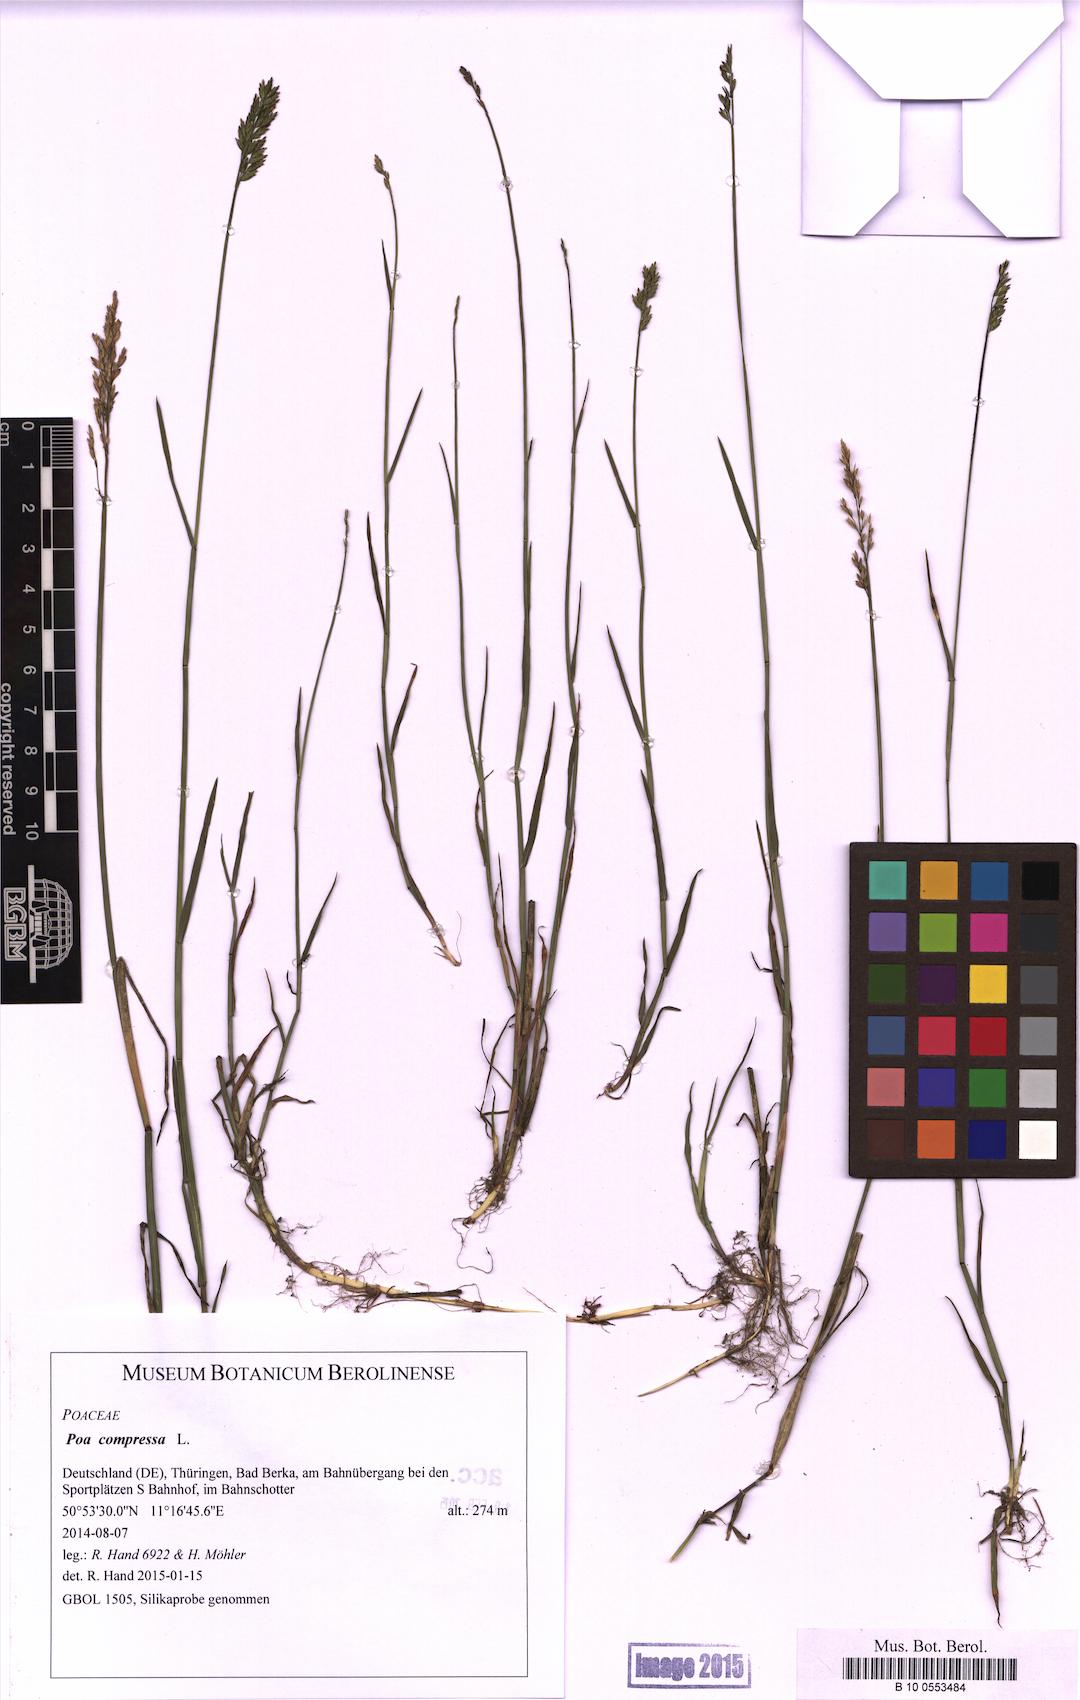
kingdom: Plantae
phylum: Tracheophyta
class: Liliopsida
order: Poales
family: Poaceae
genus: Poa
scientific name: Poa compressa
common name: Canada bluegrass
